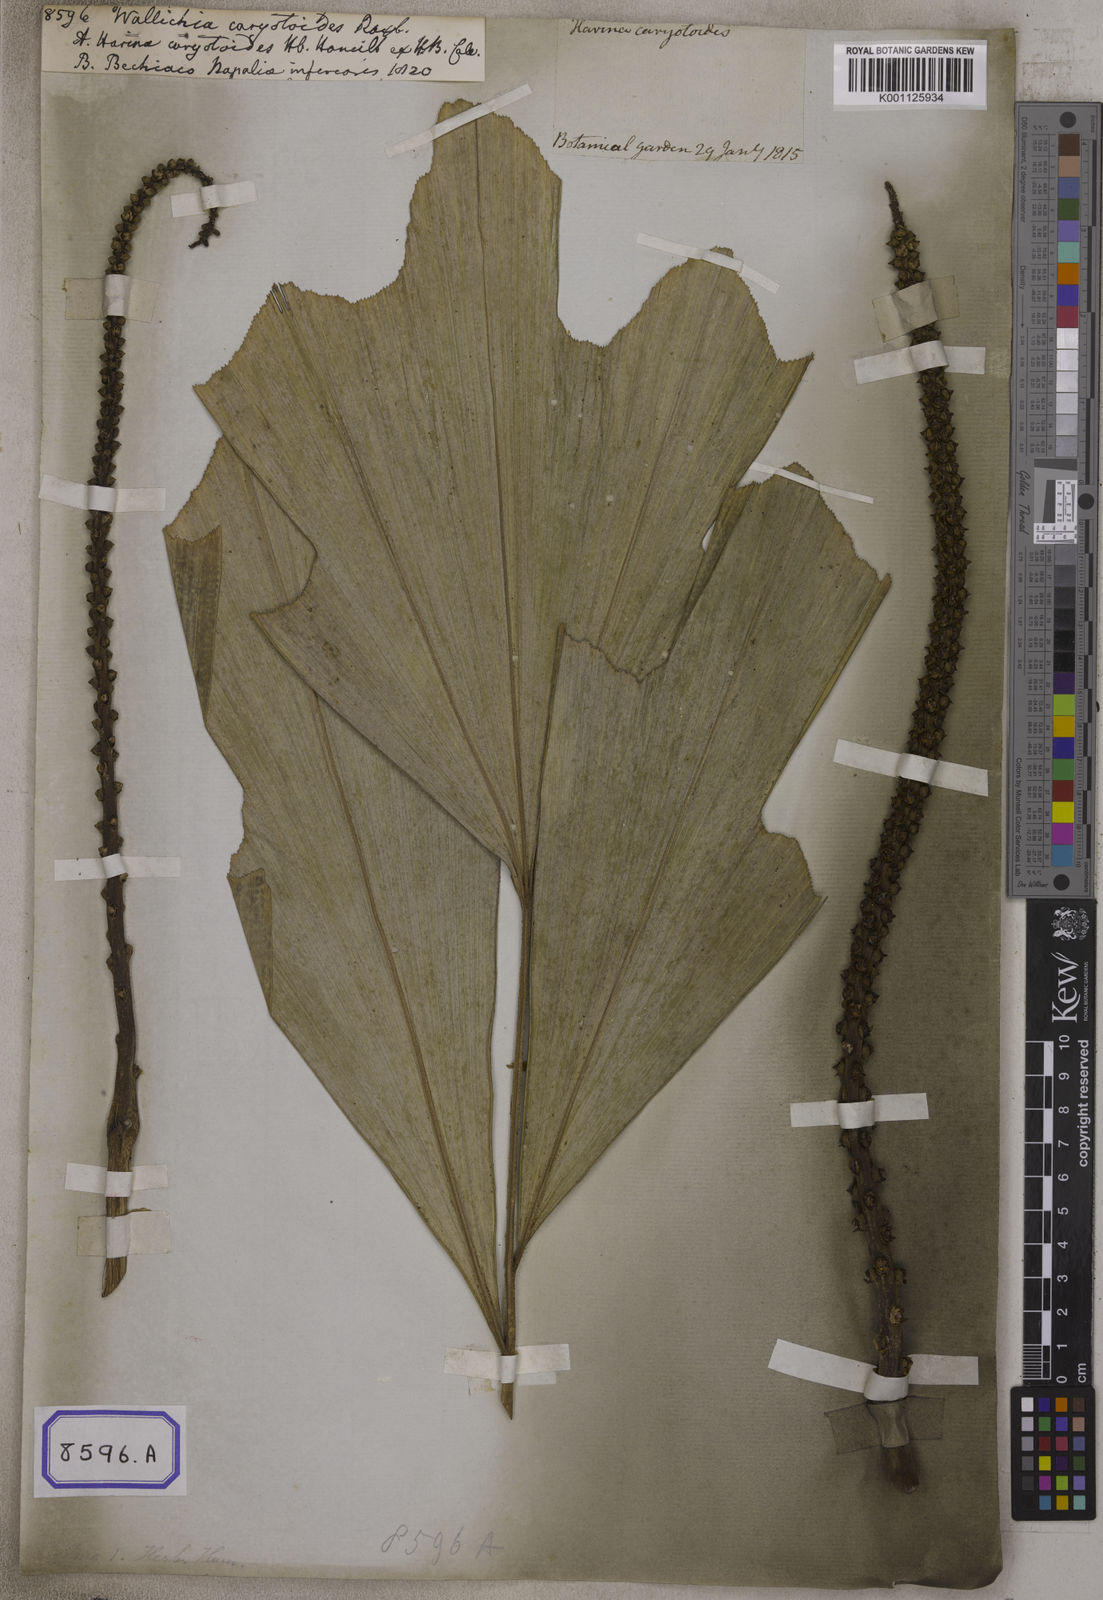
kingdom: Plantae
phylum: Tracheophyta
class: Liliopsida
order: Arecales
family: Arecaceae
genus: Wallichia
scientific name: Wallichia
